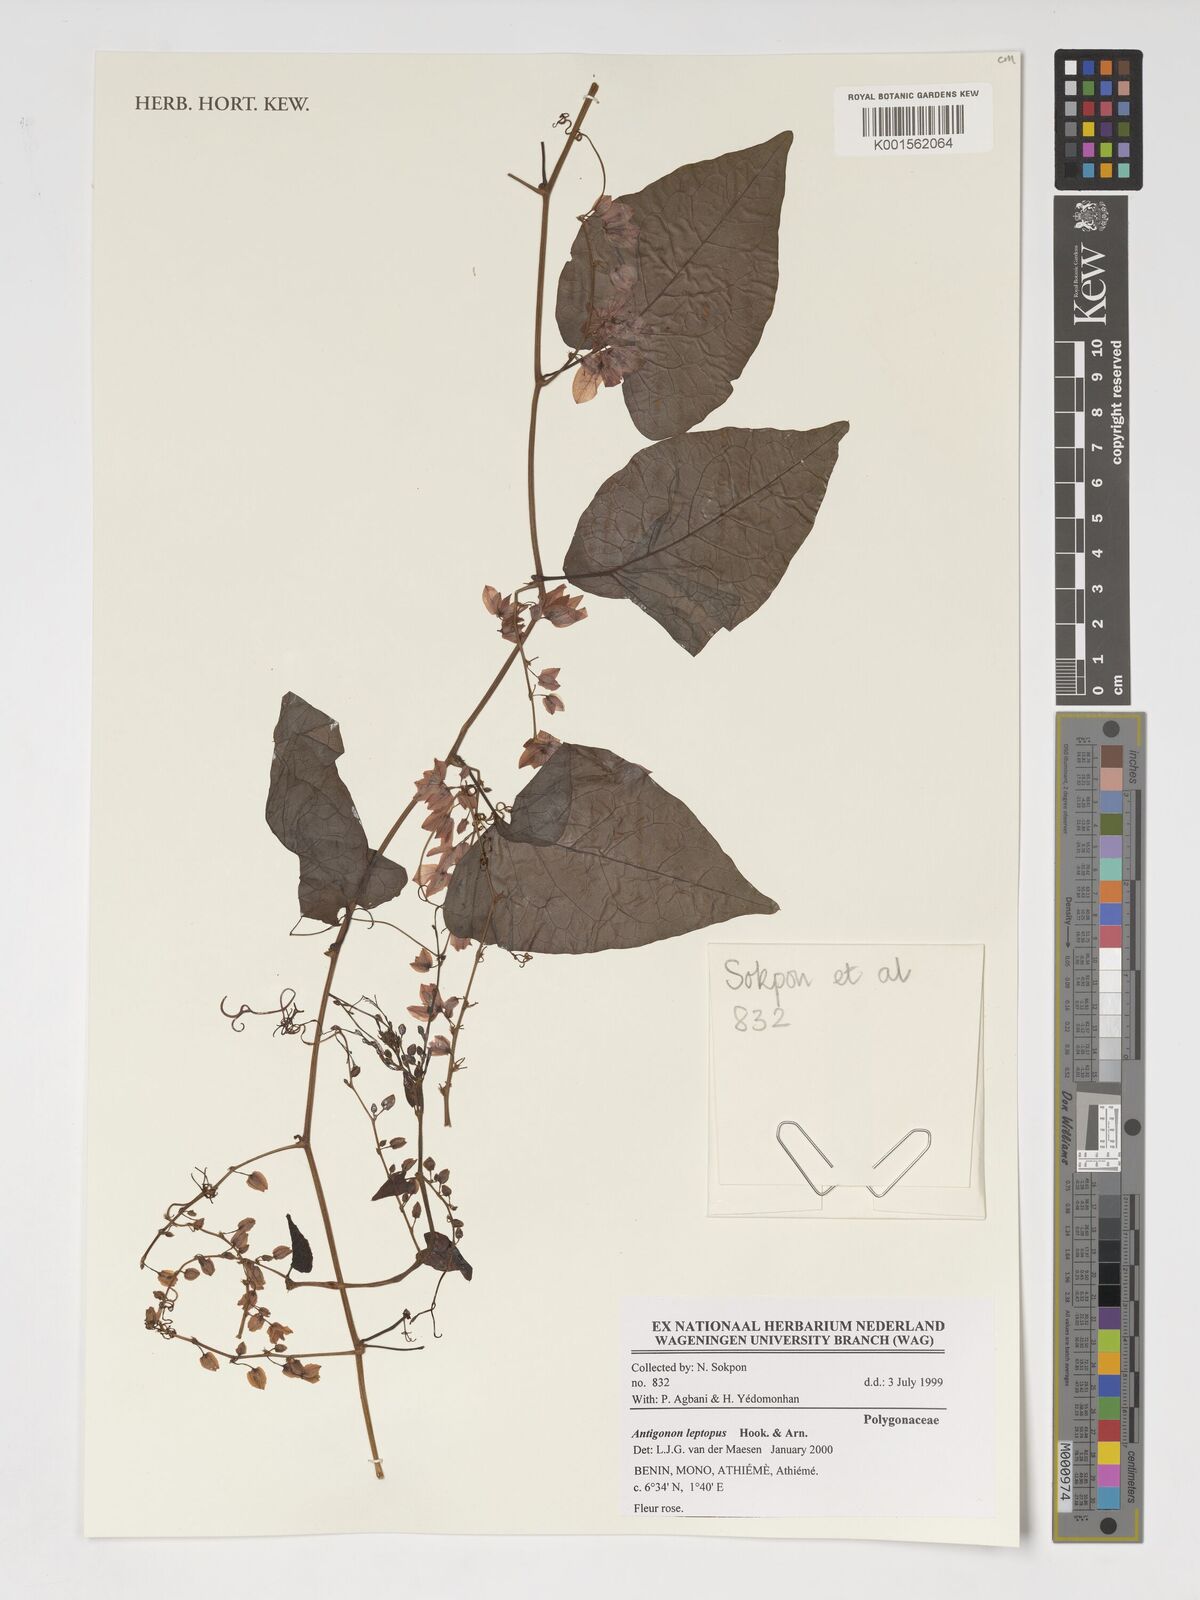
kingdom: Plantae
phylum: Tracheophyta
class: Magnoliopsida
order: Caryophyllales
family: Polygonaceae
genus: Antigonon
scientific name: Antigonon leptopus
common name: Coral vine
